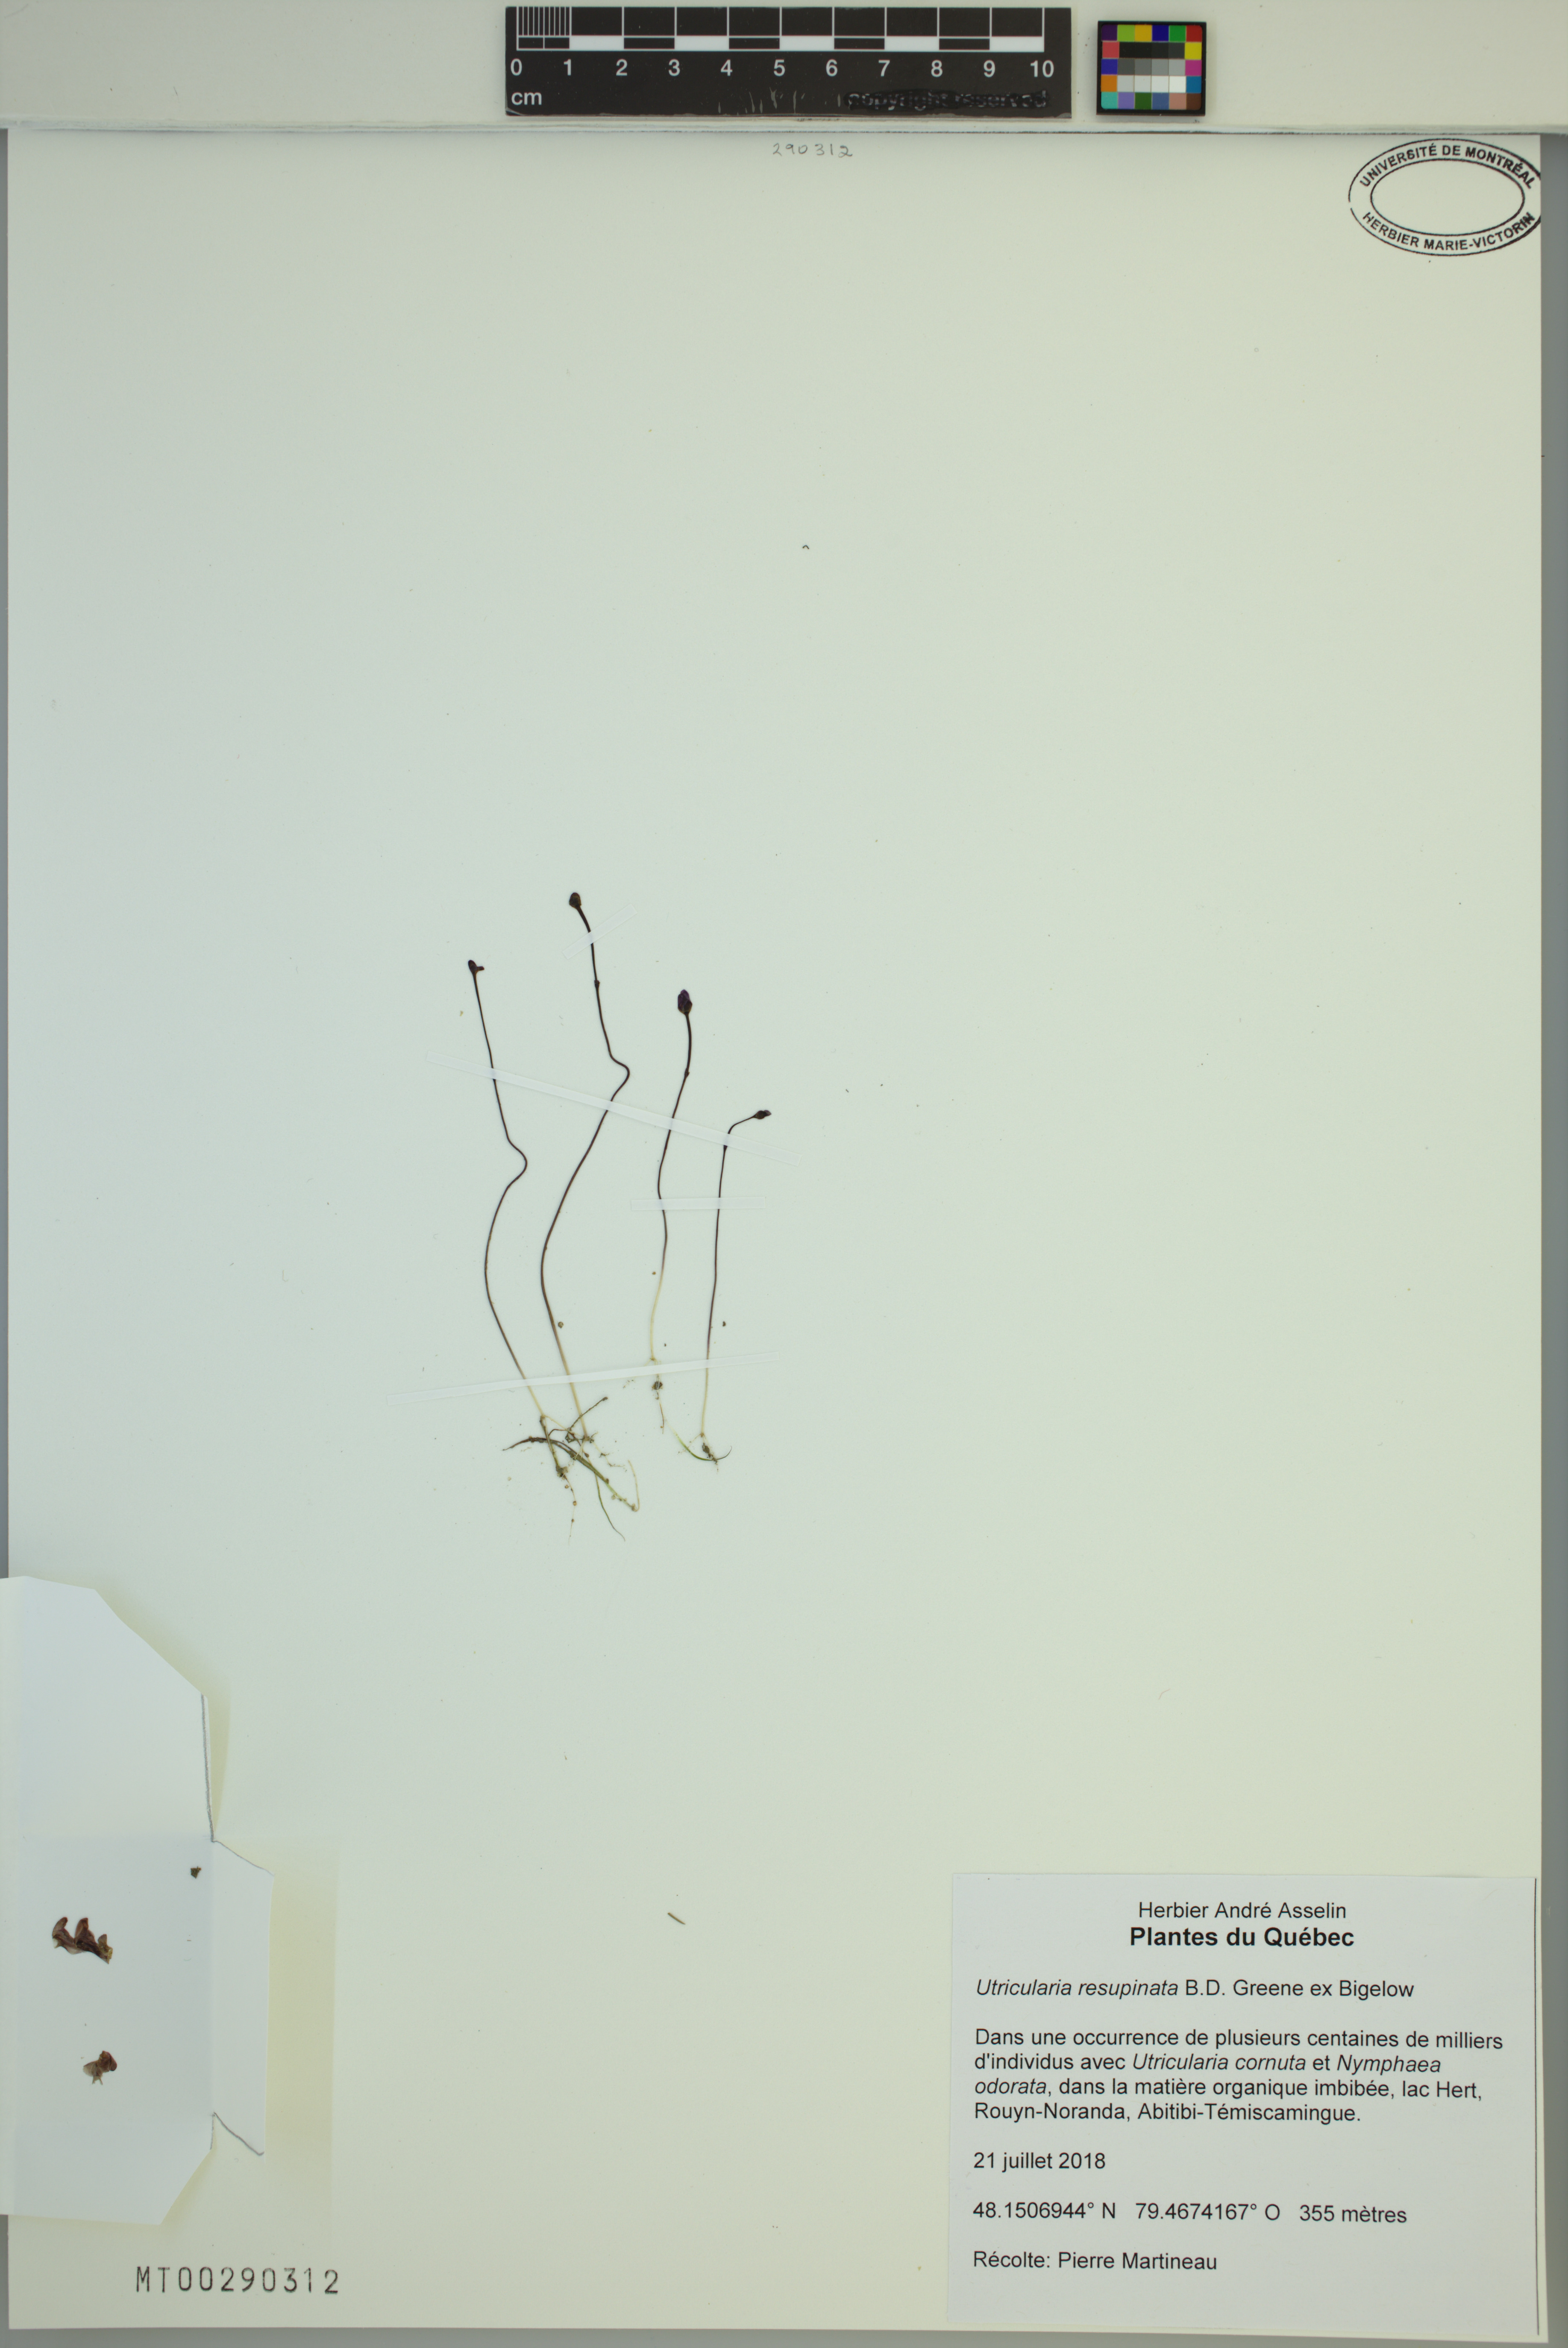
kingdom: Plantae
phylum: Tracheophyta
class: Magnoliopsida
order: Lamiales
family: Lentibulariaceae
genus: Utricularia
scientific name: Utricularia resupinata
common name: Northeastern bladderwort
